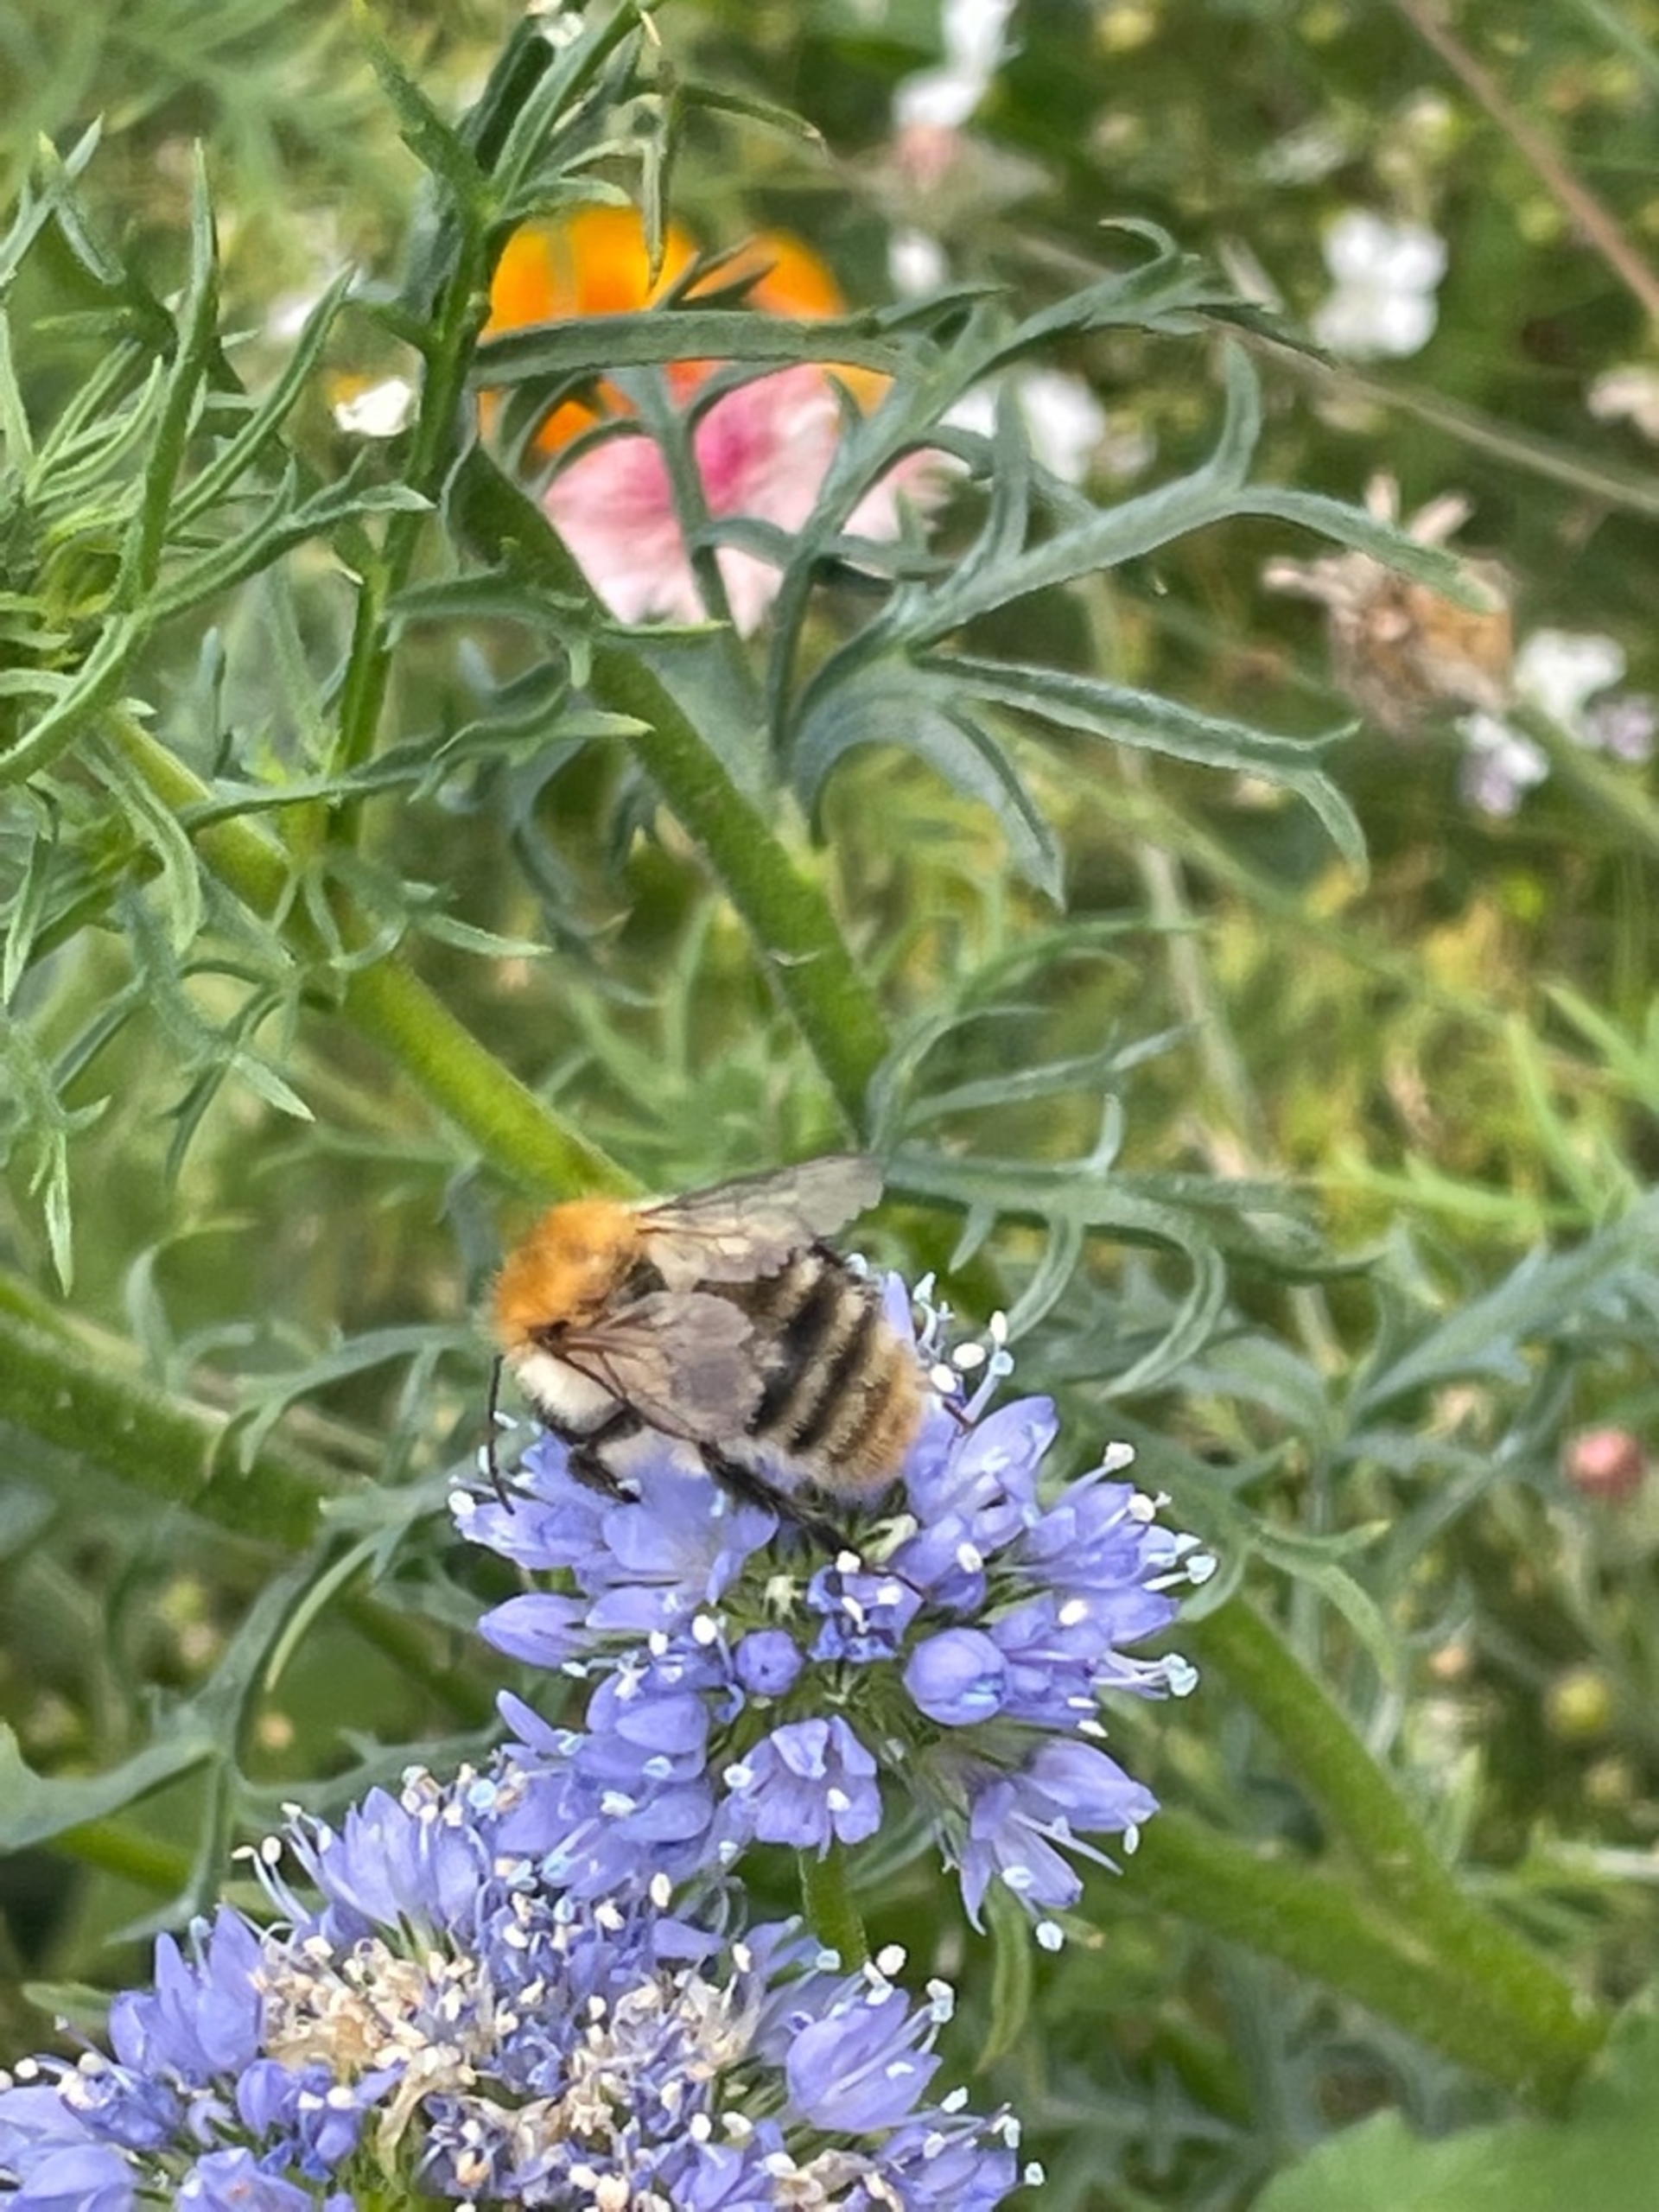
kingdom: Animalia
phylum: Arthropoda
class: Insecta
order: Hymenoptera
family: Apidae
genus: Bombus
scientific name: Bombus pascuorum
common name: Agerhumle
